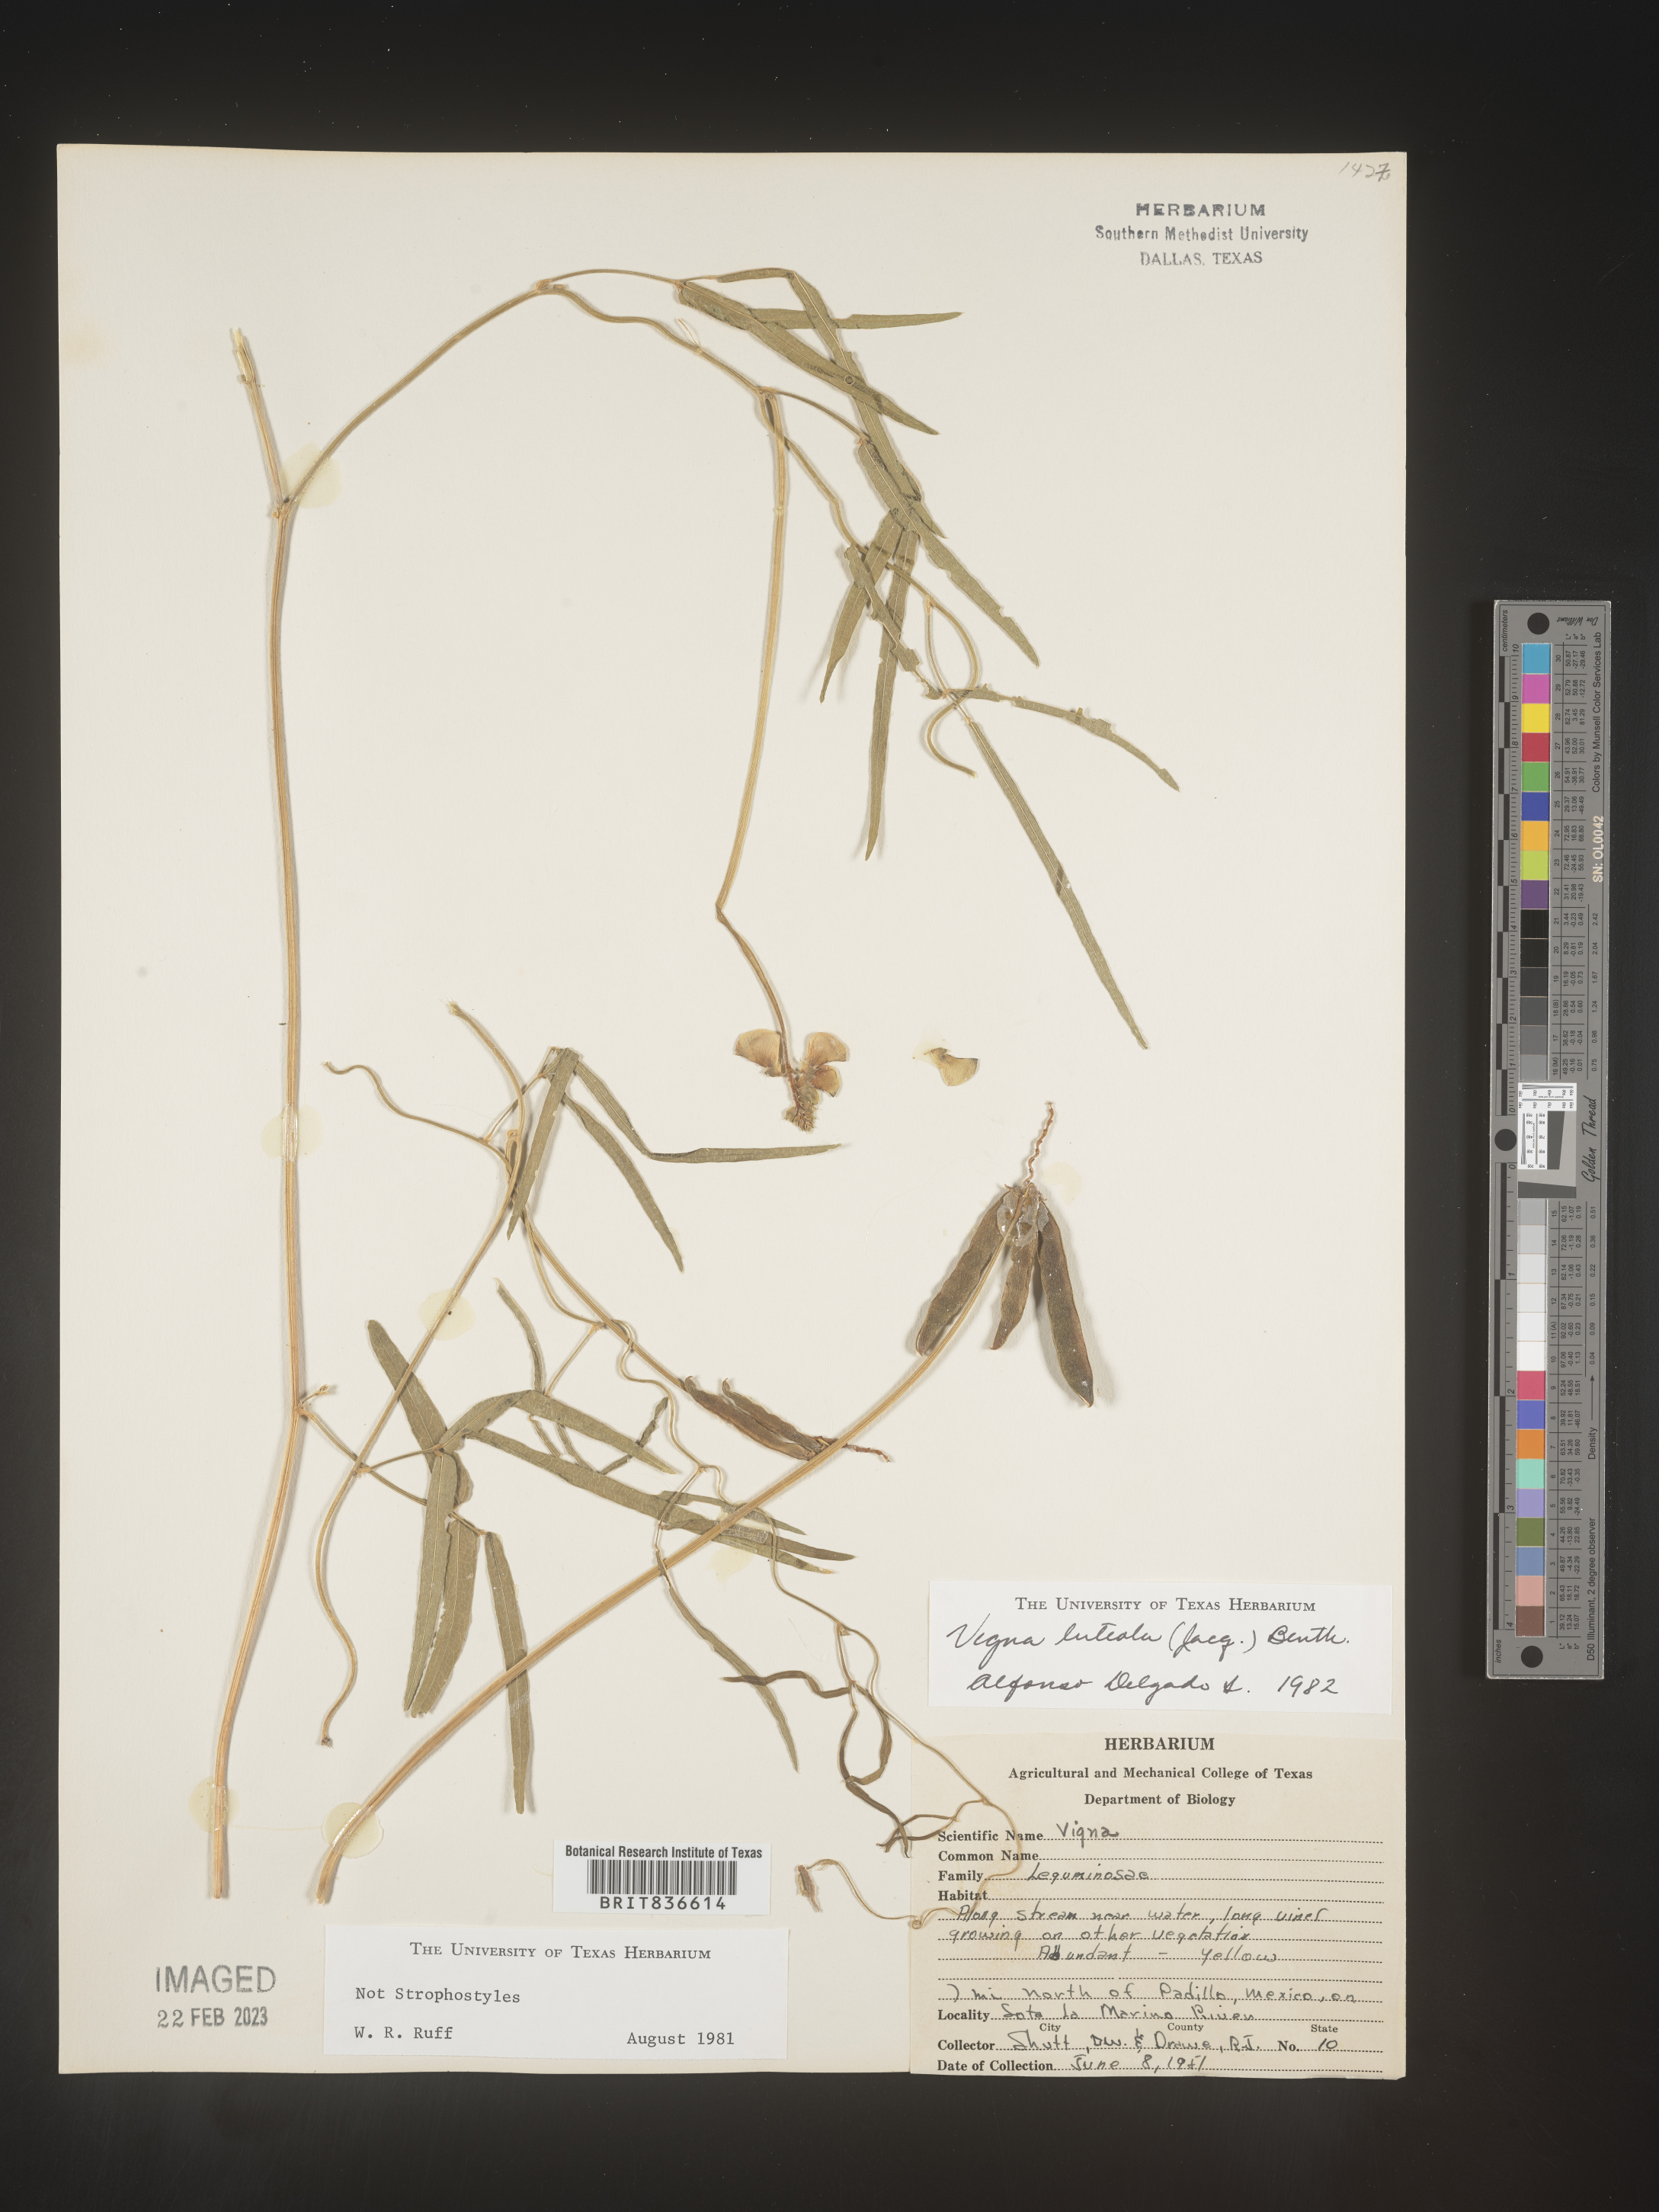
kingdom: Plantae
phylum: Tracheophyta
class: Magnoliopsida
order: Fabales
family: Fabaceae
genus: Vigna
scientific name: Vigna
